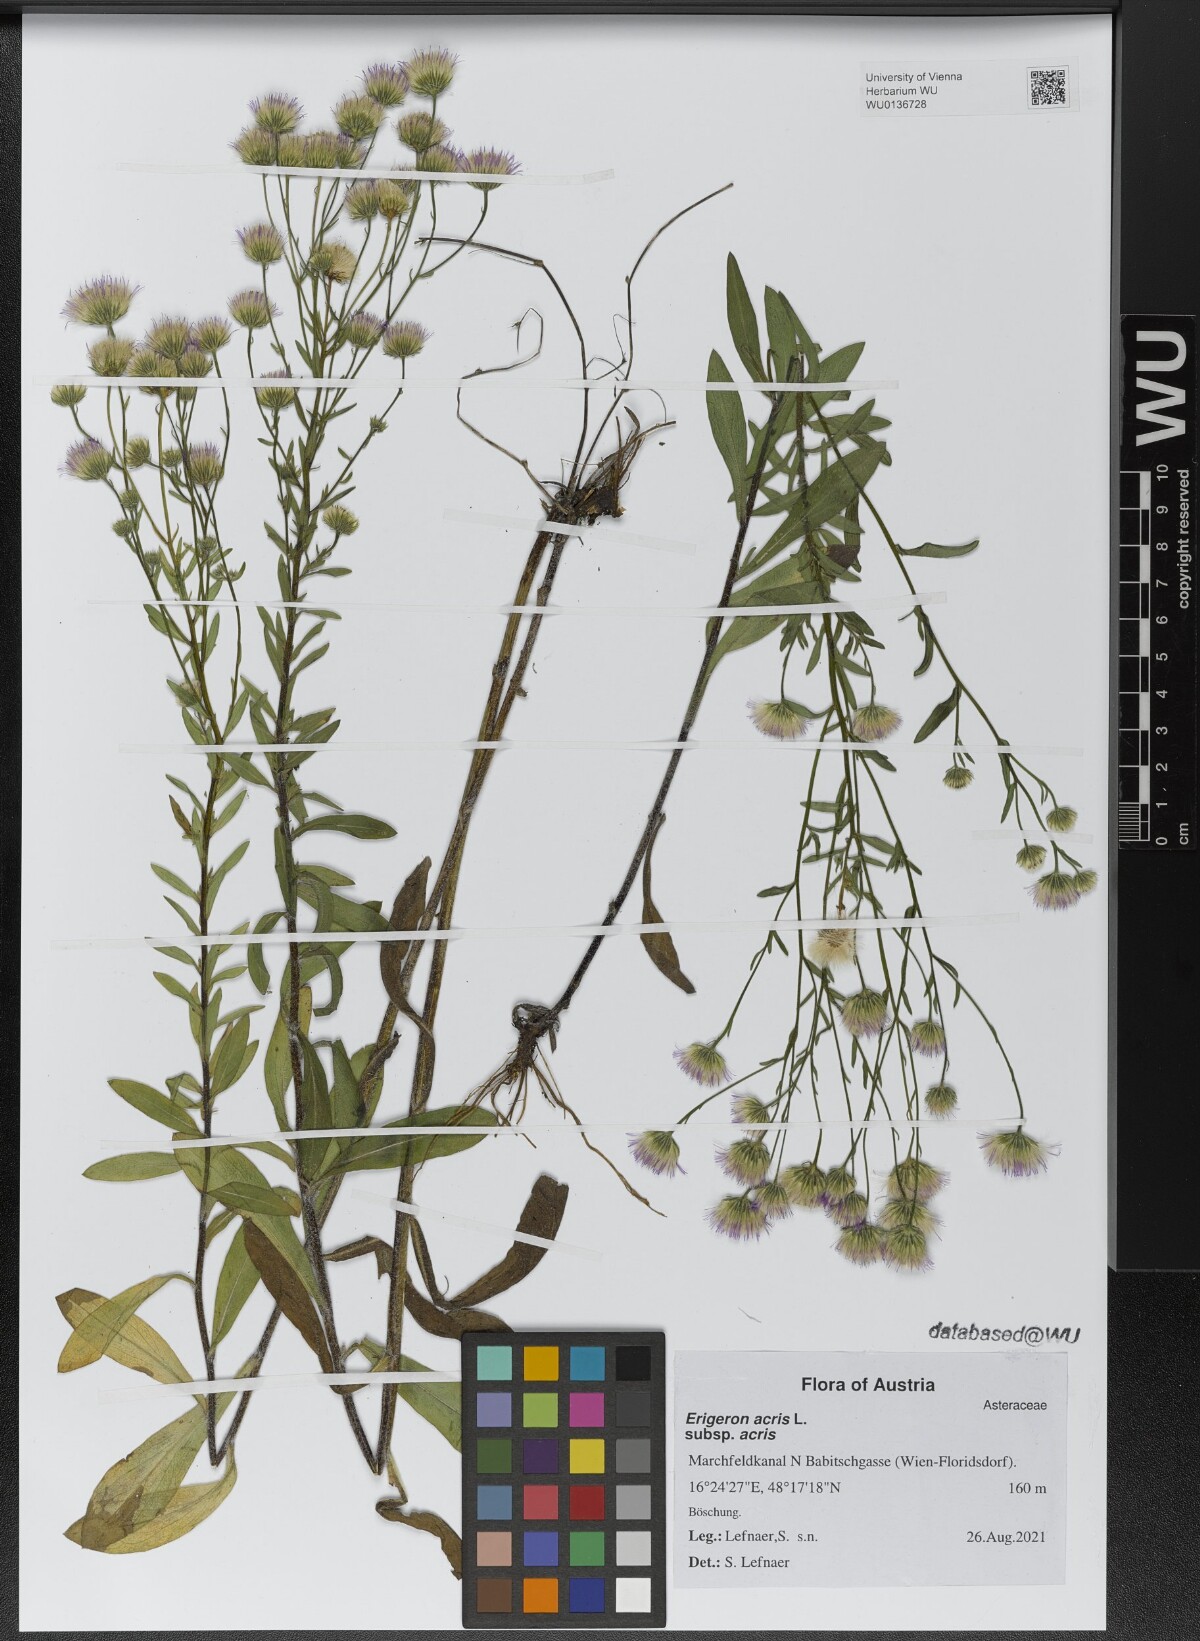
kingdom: Plantae
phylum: Tracheophyta
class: Magnoliopsida
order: Asterales
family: Asteraceae
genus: Erigeron
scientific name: Erigeron acris
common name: Blue fleabane
